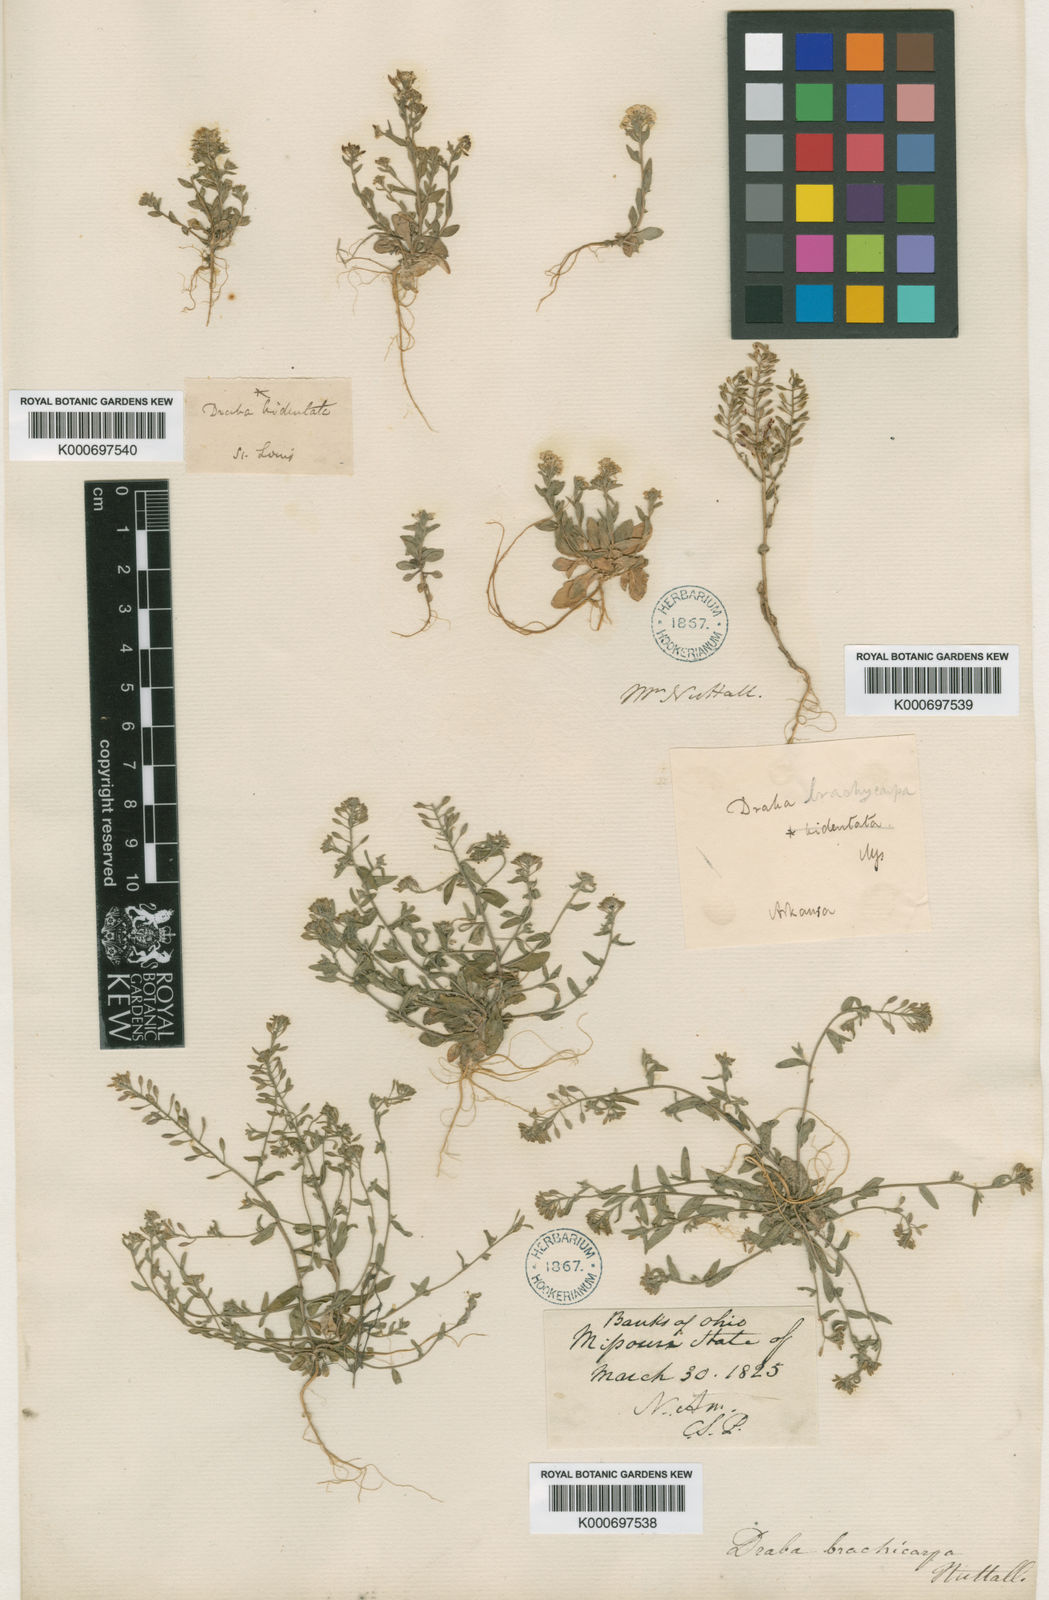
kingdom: Plantae
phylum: Tracheophyta
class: Magnoliopsida
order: Brassicales
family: Brassicaceae
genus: Draba
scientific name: Draba
